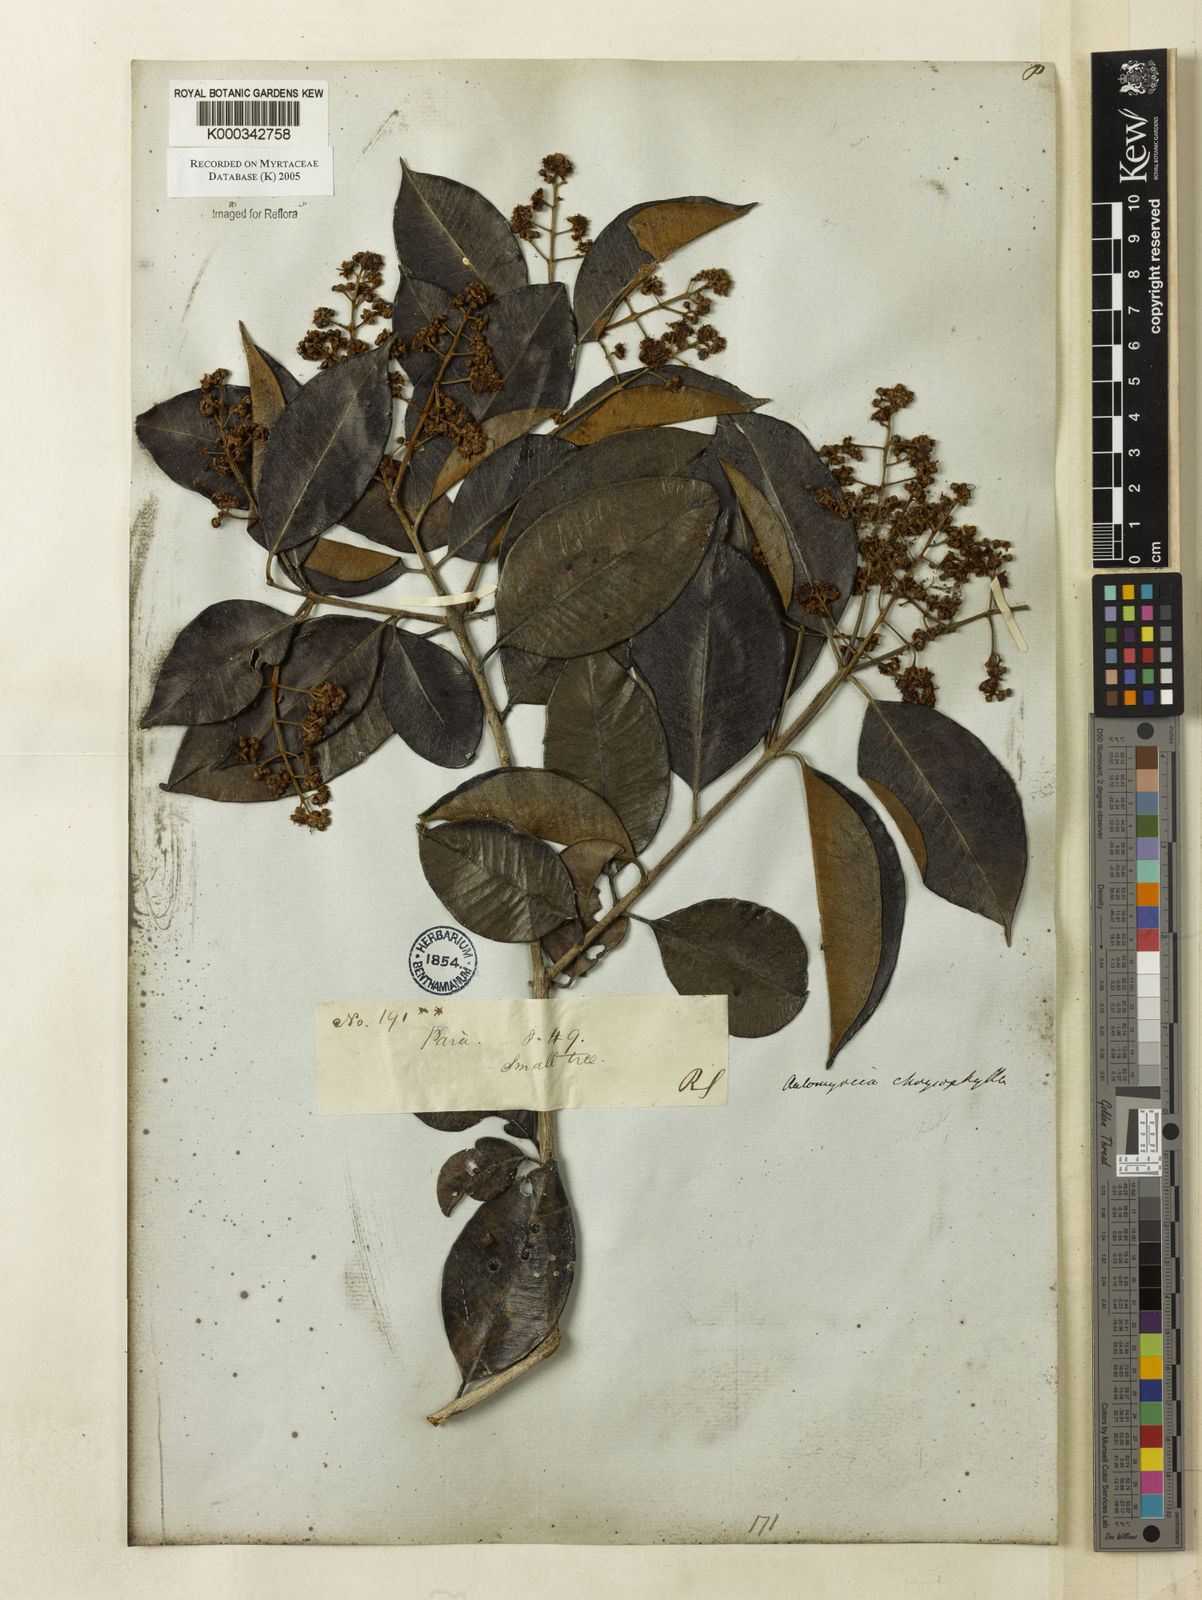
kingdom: Plantae
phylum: Tracheophyta
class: Magnoliopsida
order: Myrtales
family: Myrtaceae
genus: Myrcia
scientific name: Myrcia cuprea
